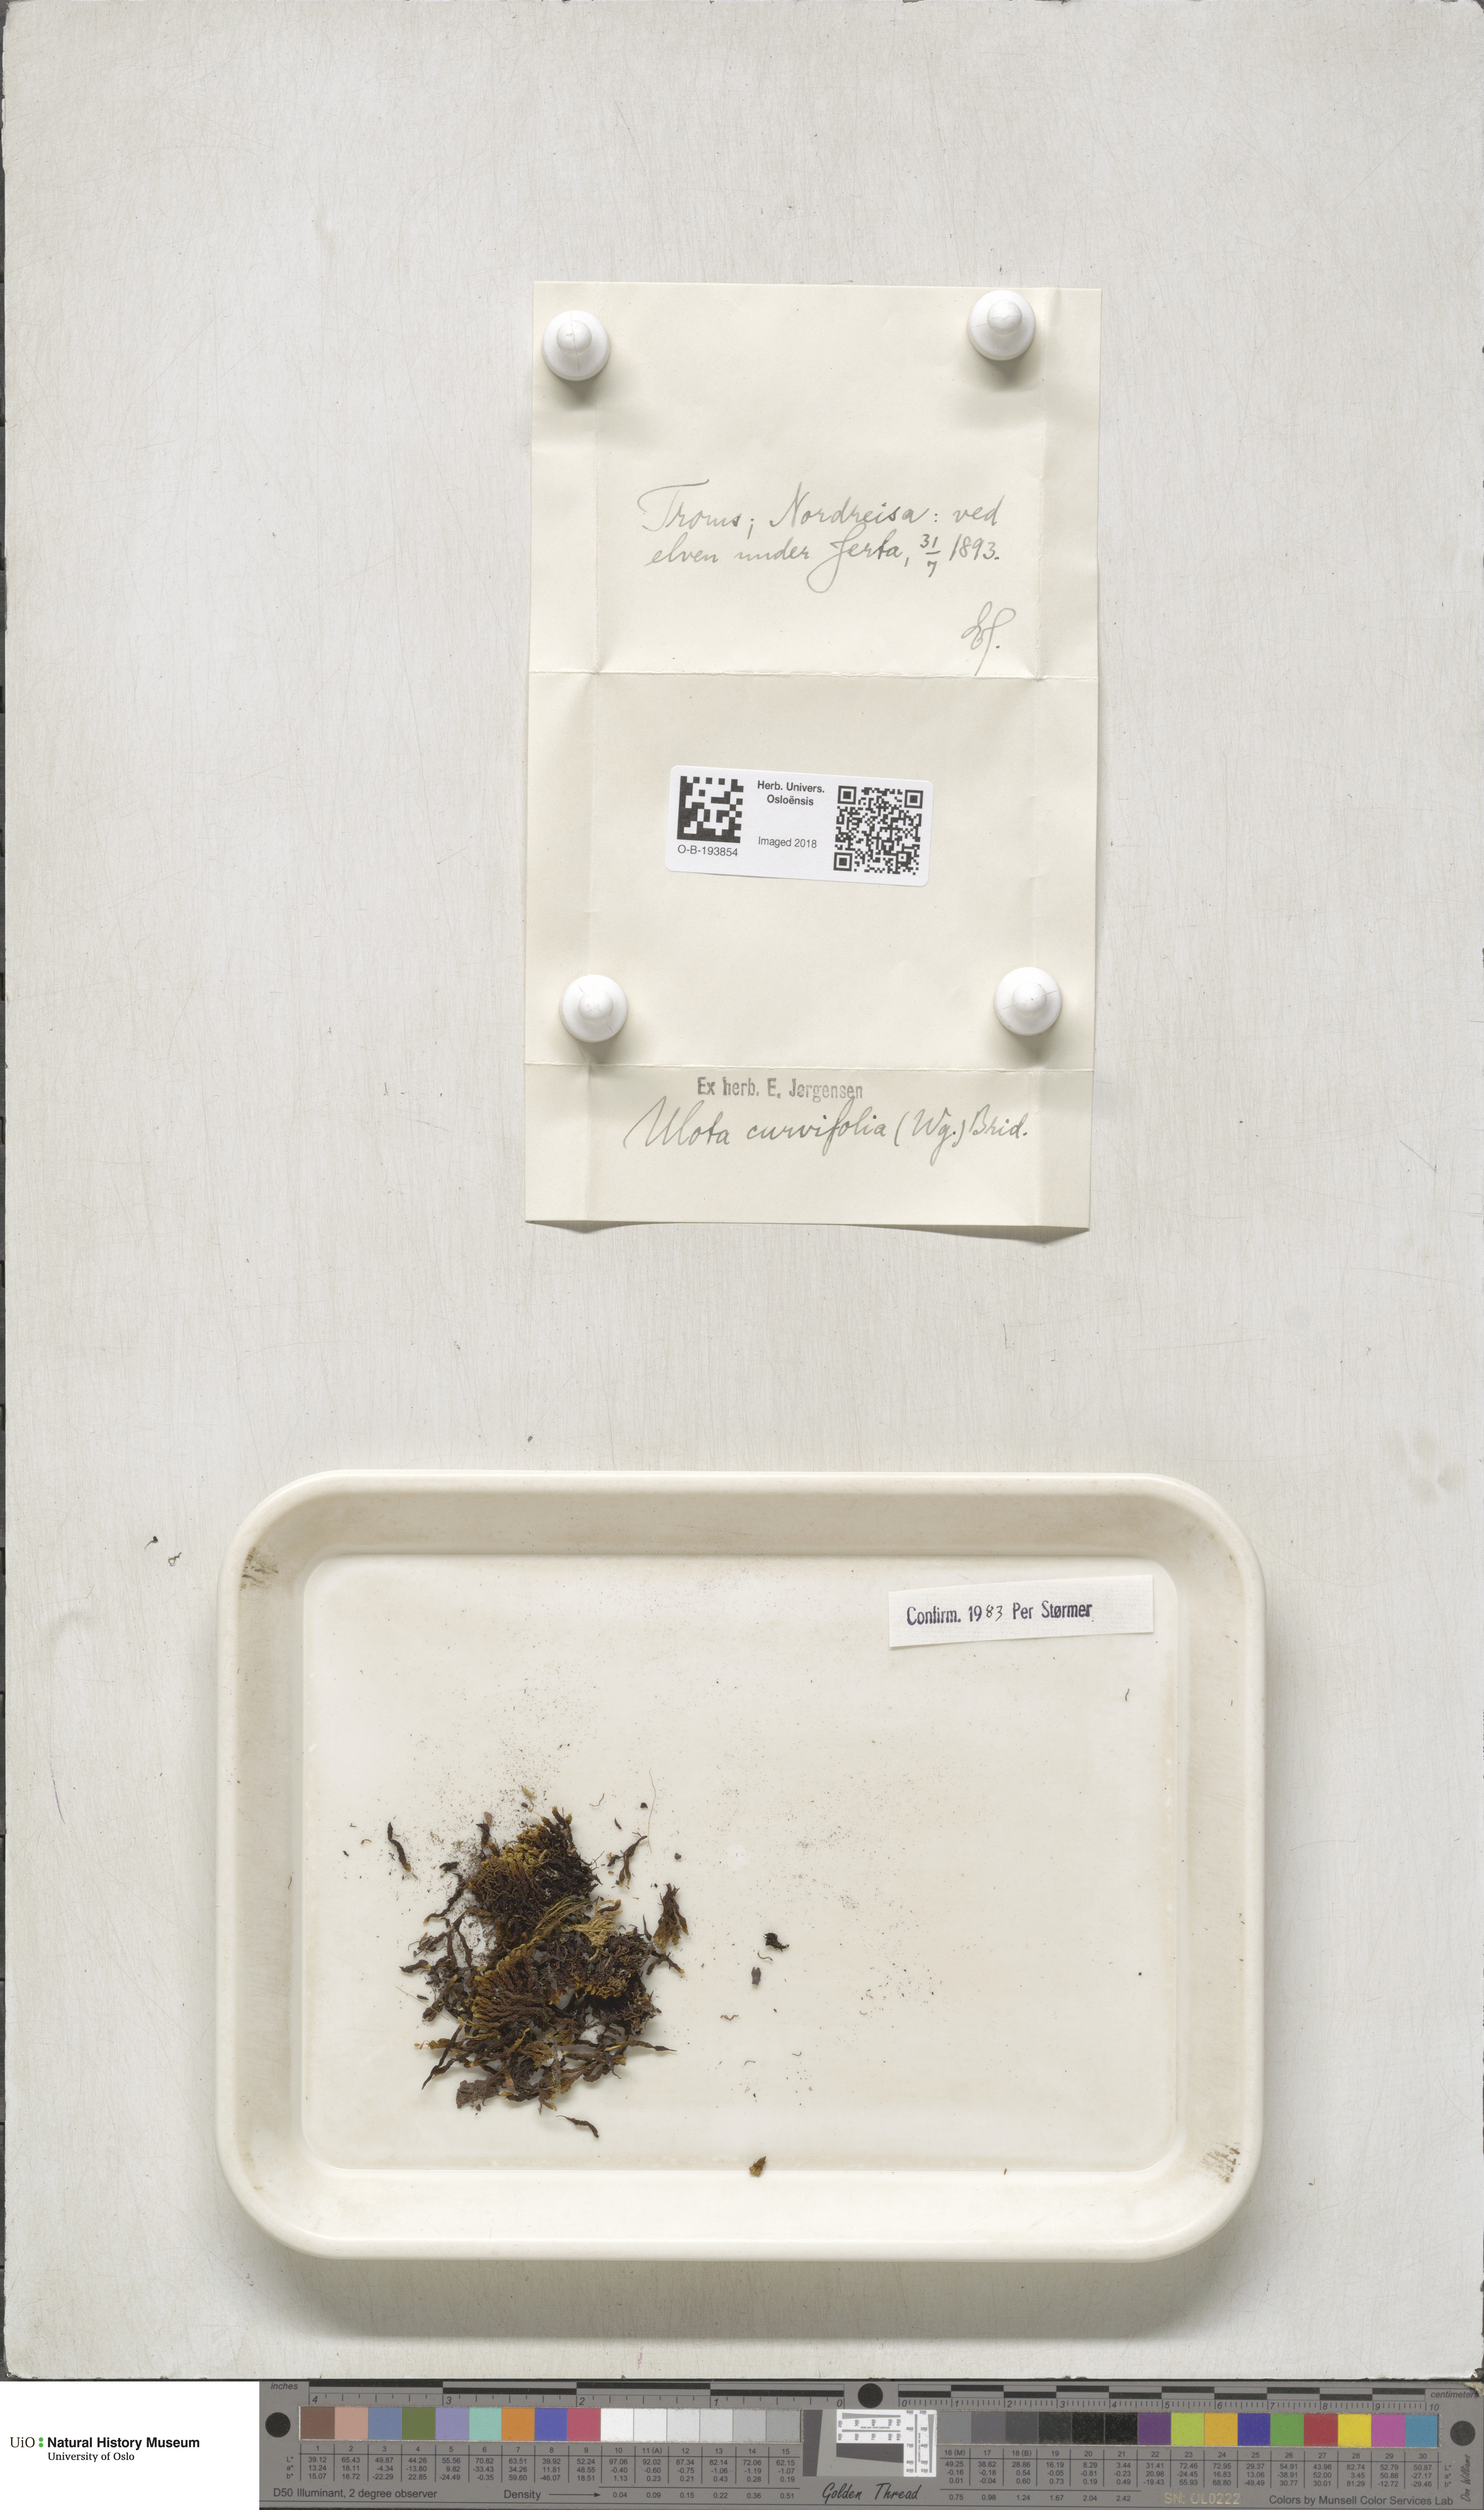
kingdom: Plantae
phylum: Bryophyta
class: Bryopsida
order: Orthotrichales
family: Orthotrichaceae
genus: Ulota
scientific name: Ulota curvifolia
